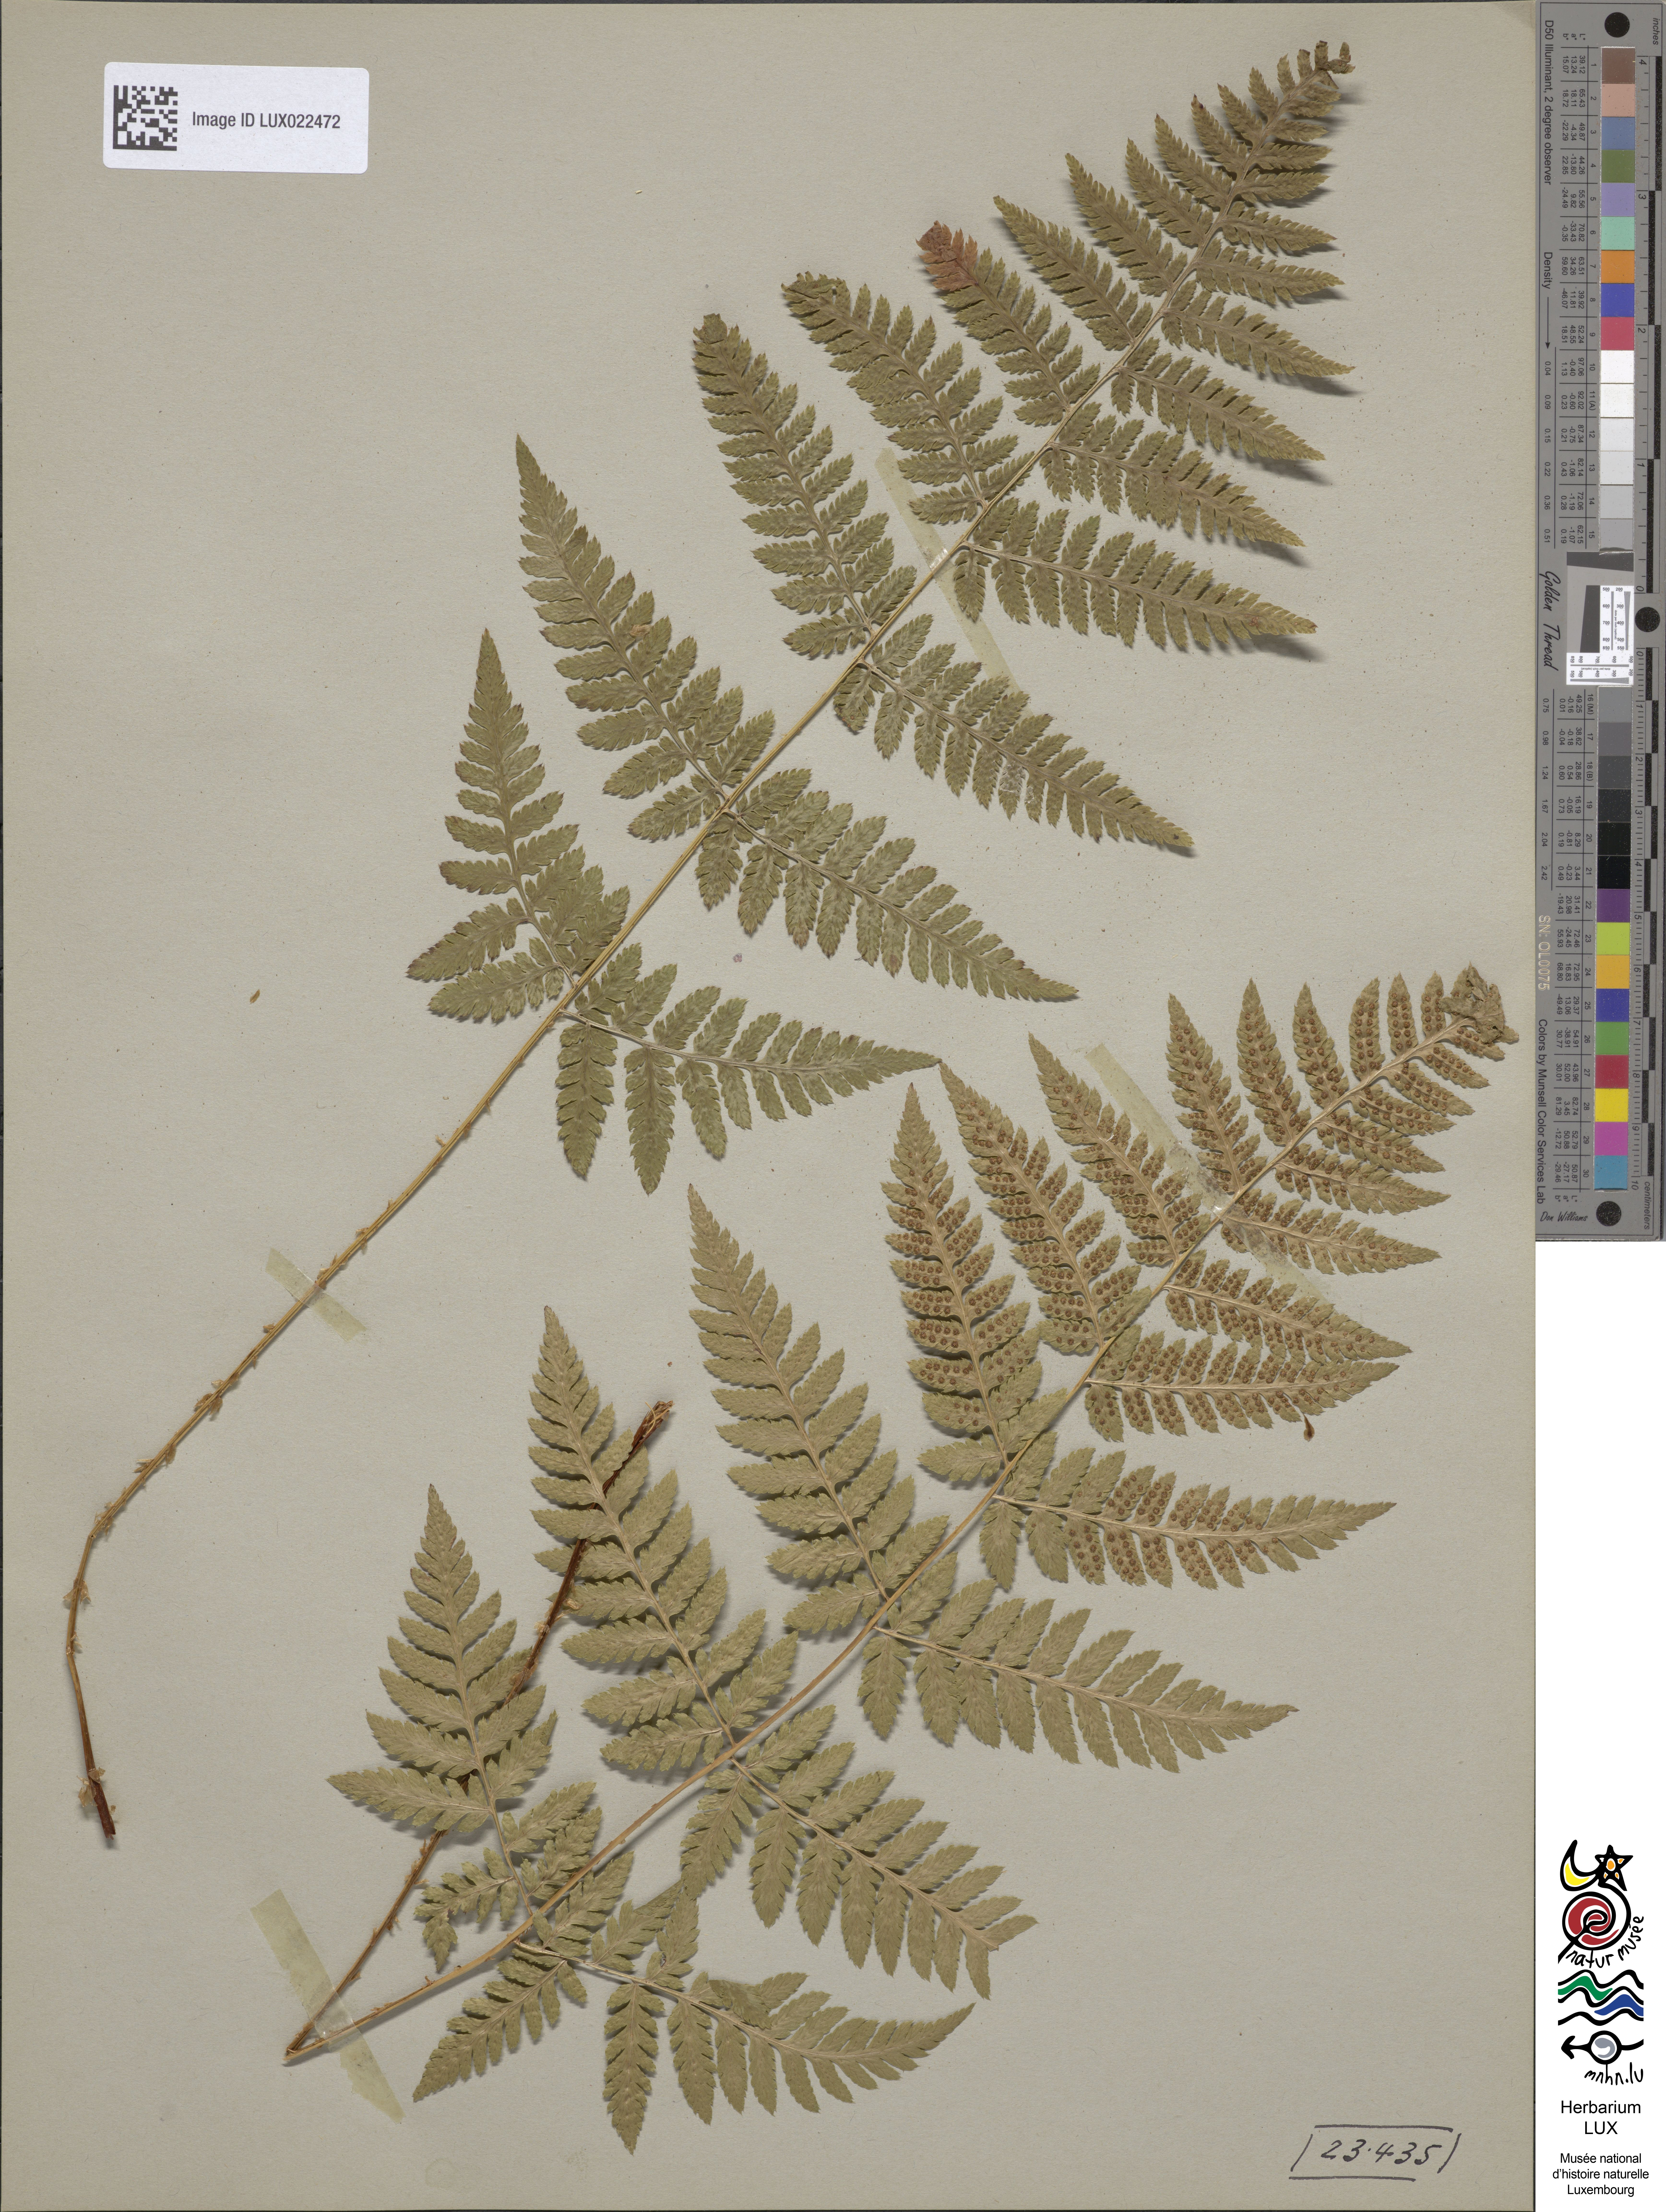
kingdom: Plantae
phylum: Tracheophyta
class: Polypodiopsida
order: Polypodiales
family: Dryopteridaceae
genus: Dryopteris
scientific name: Dryopteris carthusiana
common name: Narrow buckler-fern
